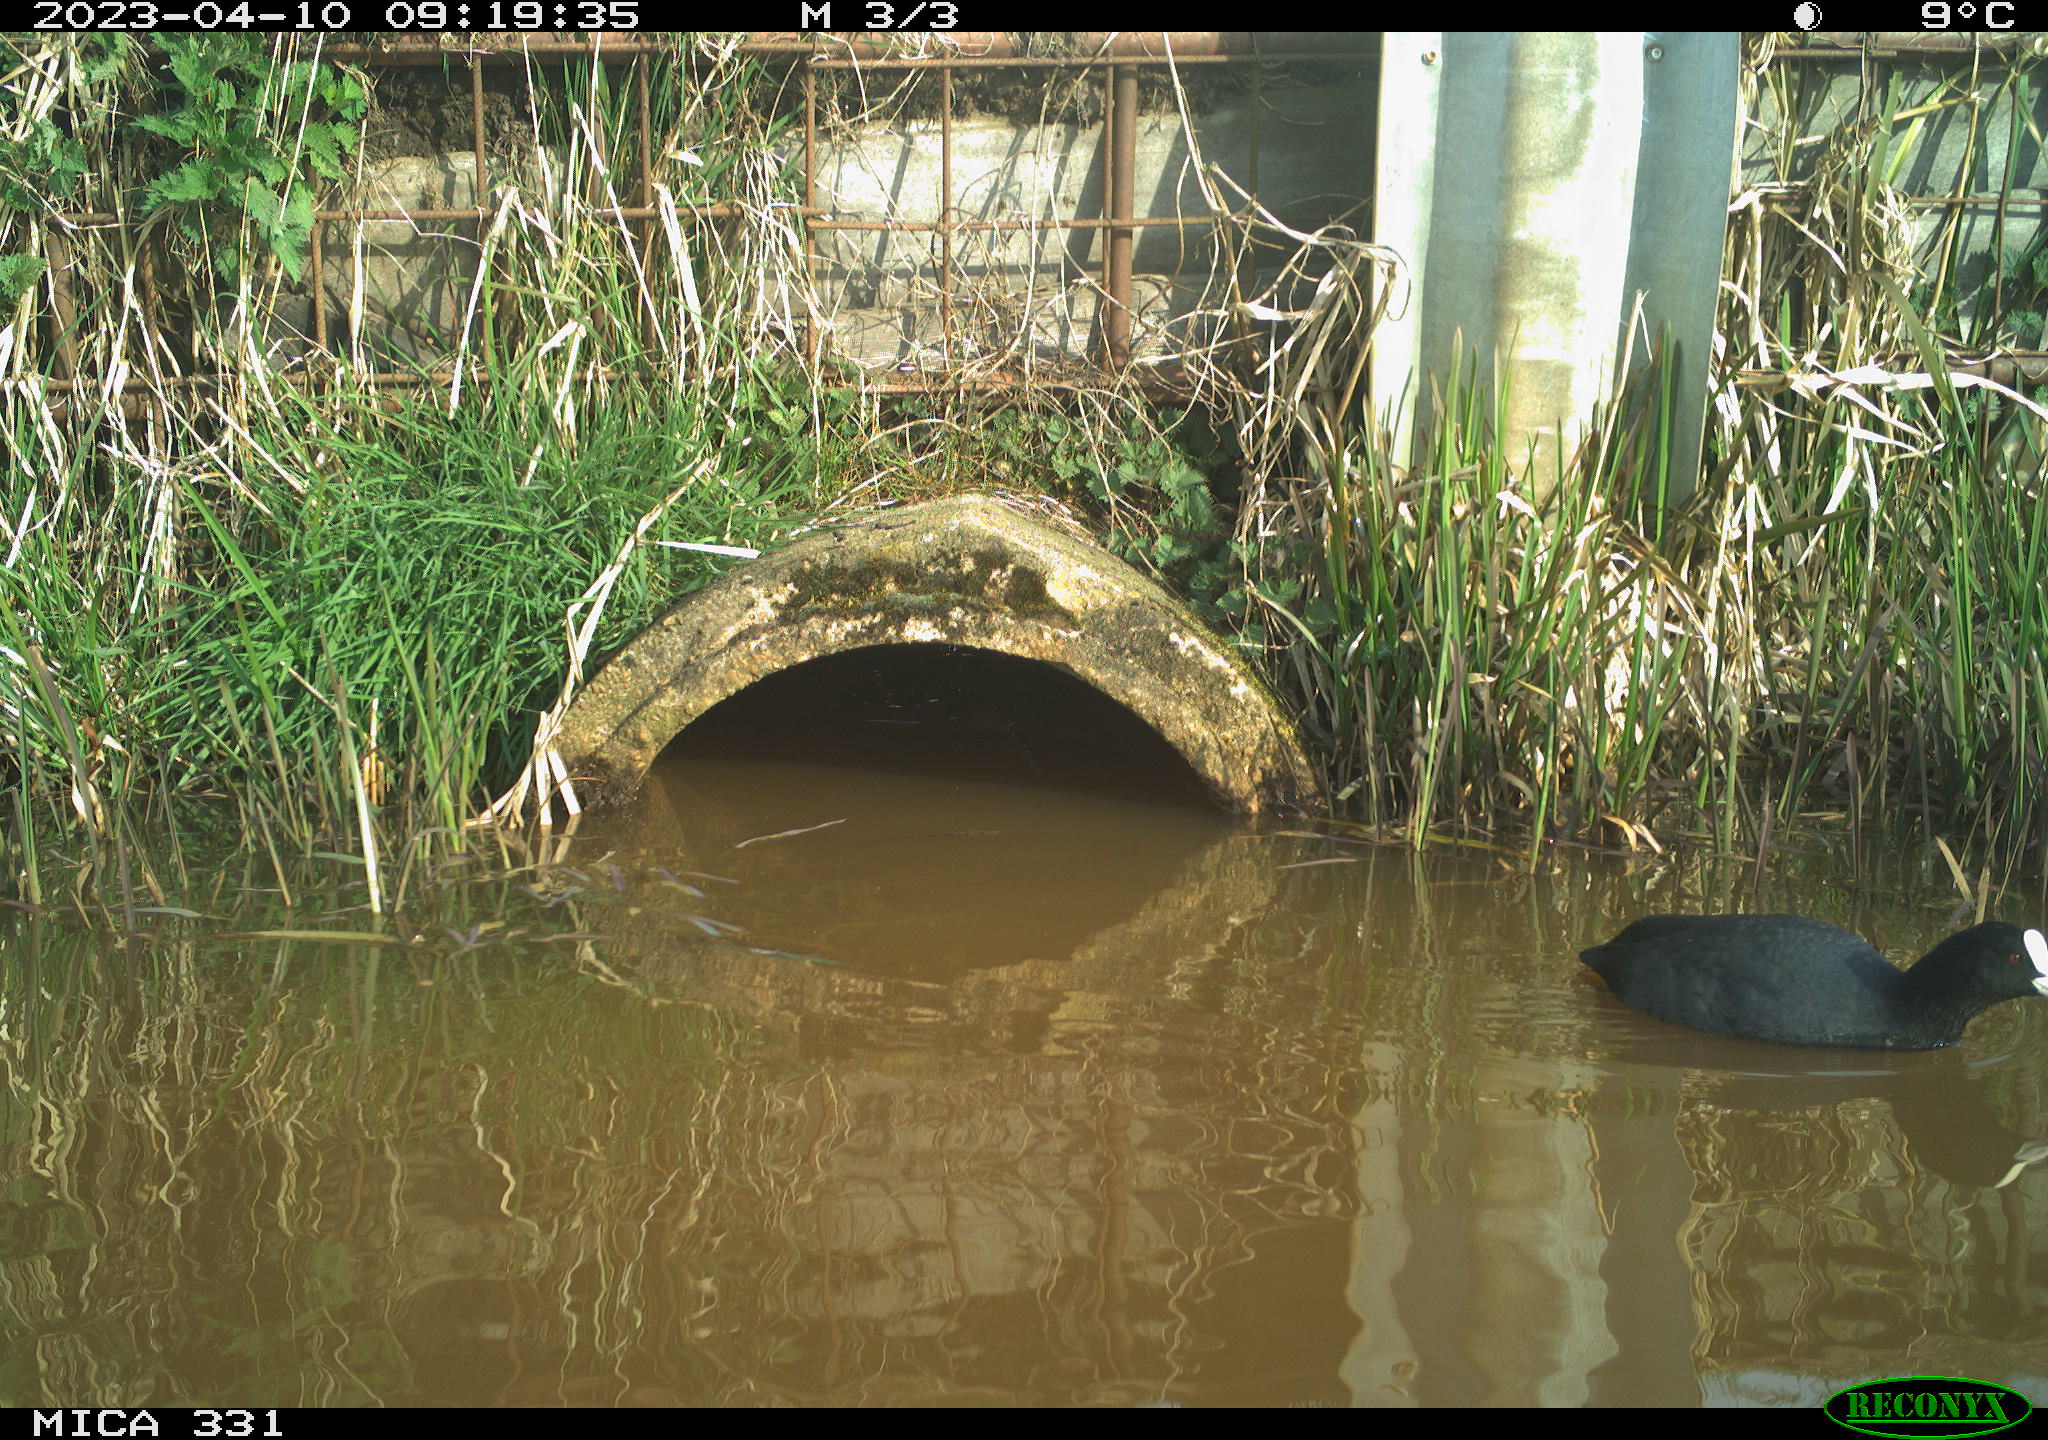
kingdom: Animalia
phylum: Chordata
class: Aves
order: Gruiformes
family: Rallidae
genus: Fulica
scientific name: Fulica atra
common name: Eurasian coot
